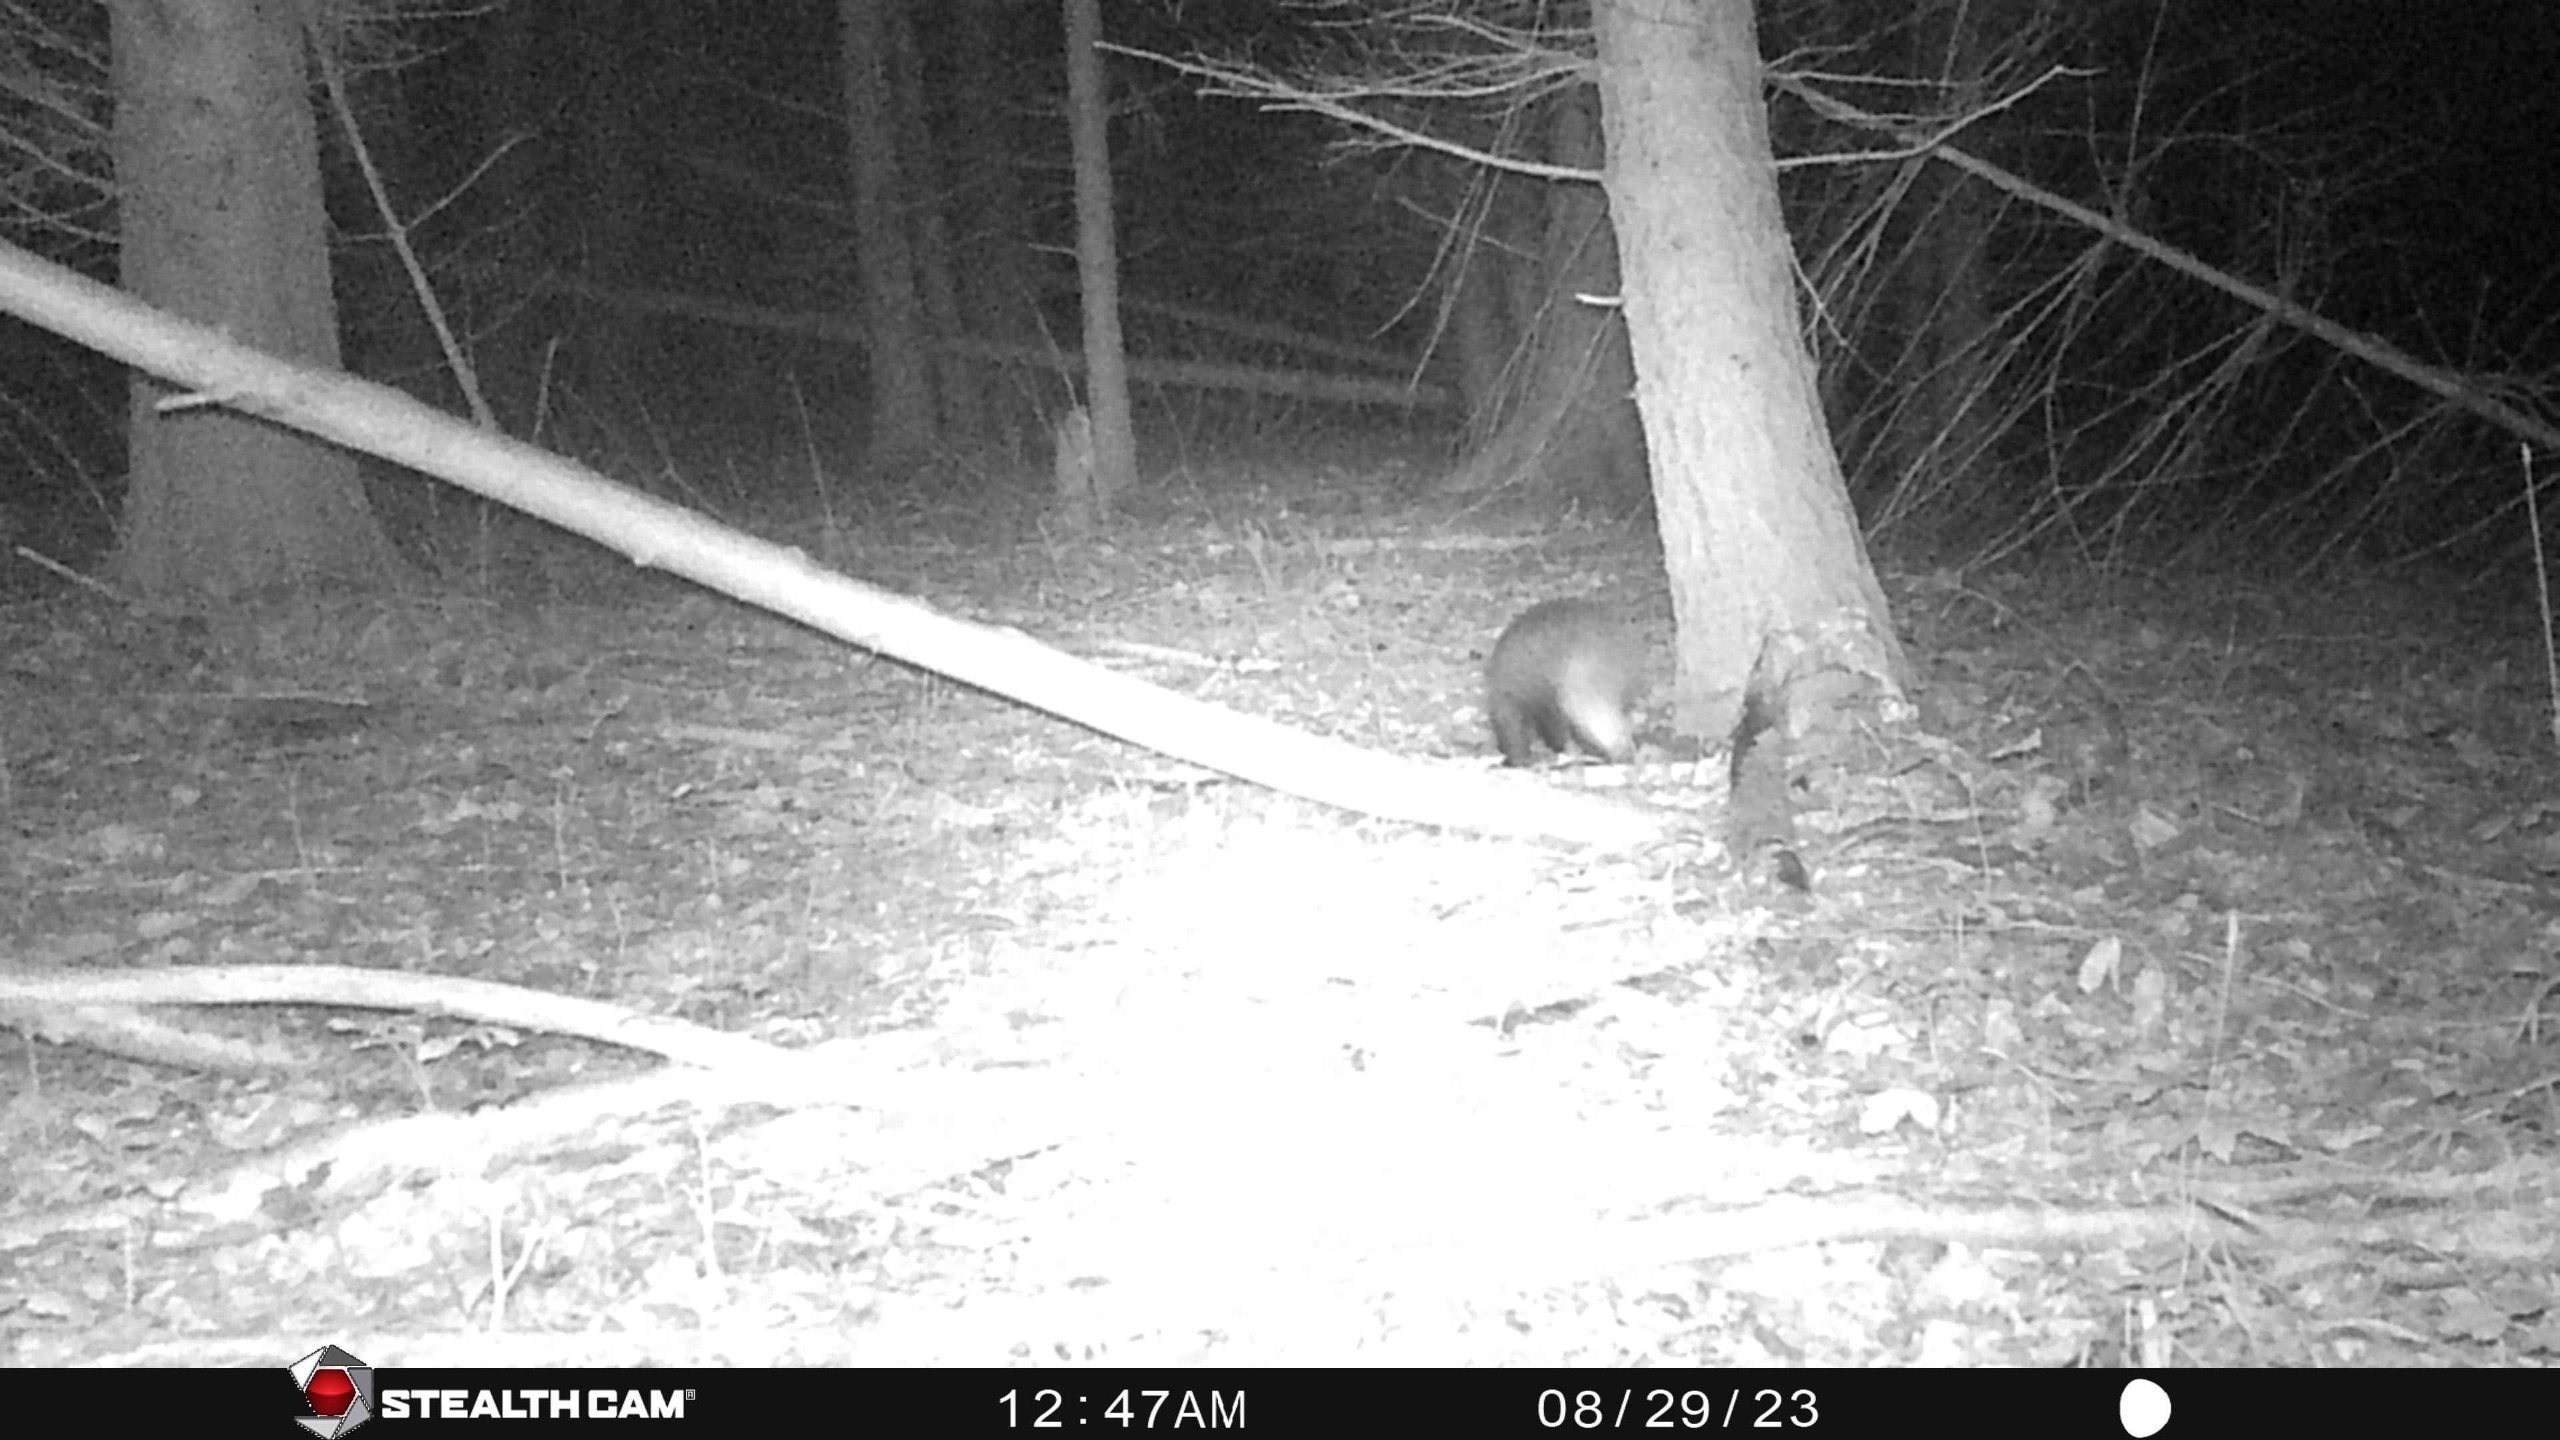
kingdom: Animalia
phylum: Chordata
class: Mammalia
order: Carnivora
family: Mustelidae
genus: Meles
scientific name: Meles meles
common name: Grævling
